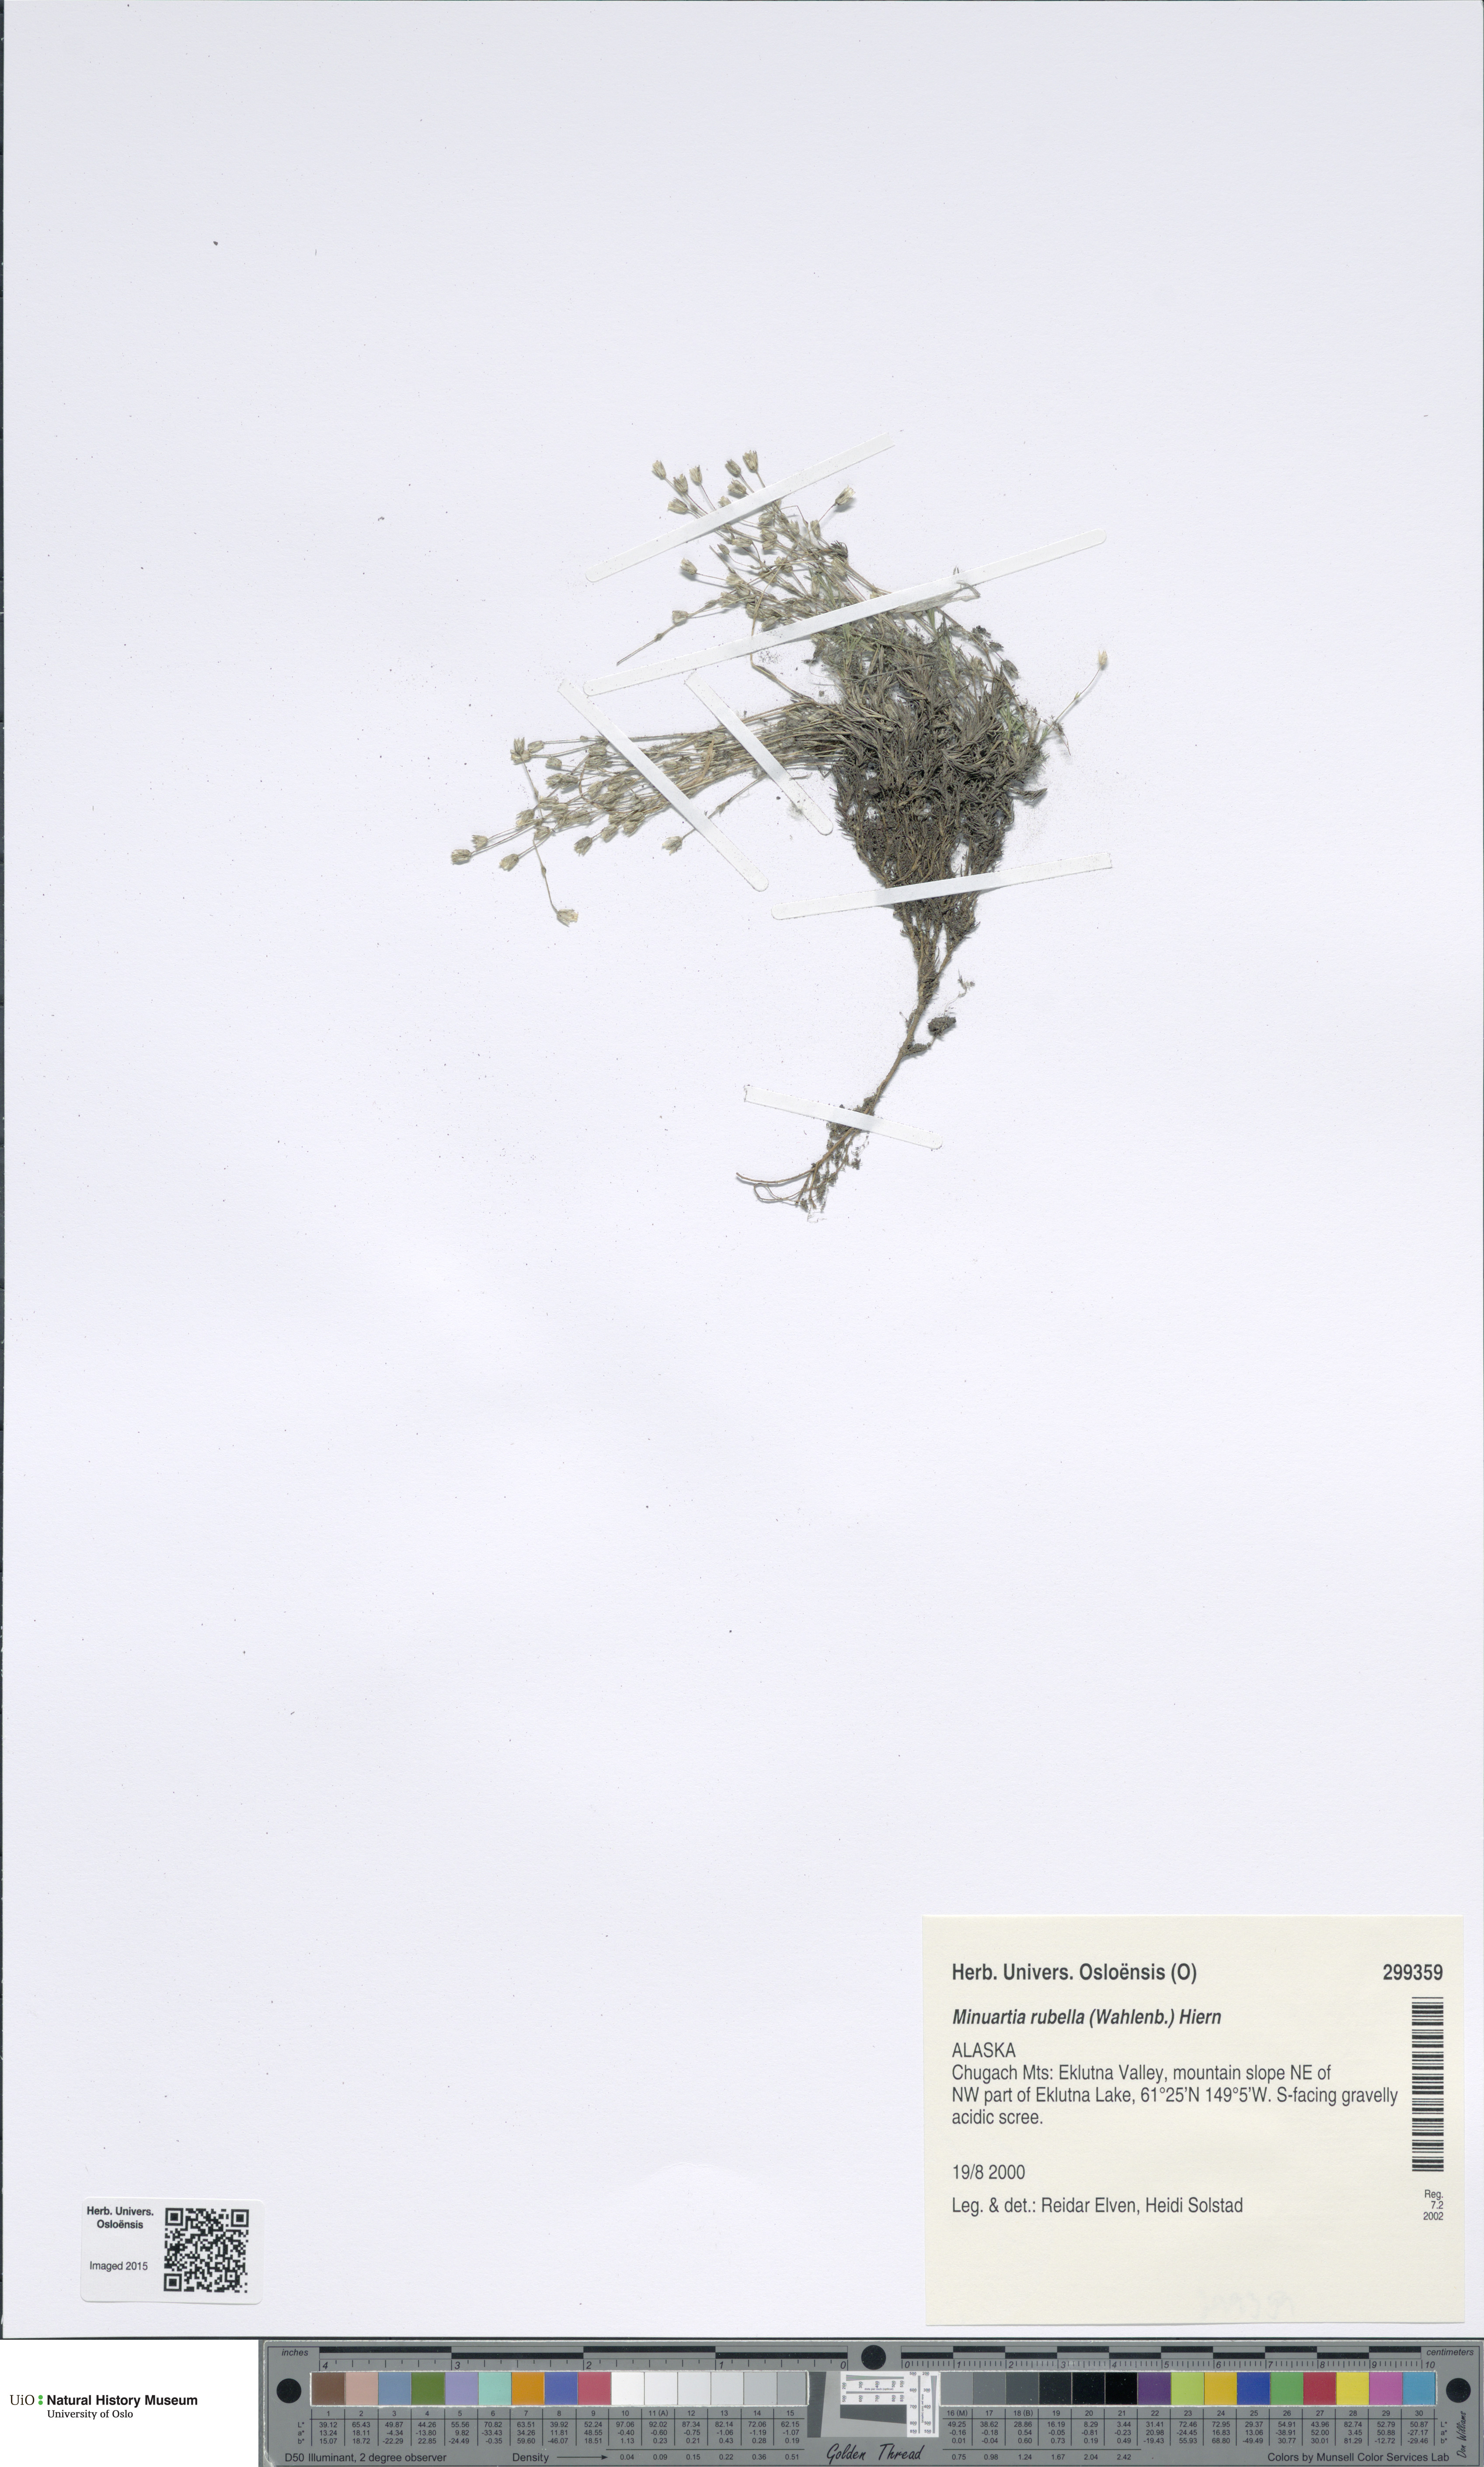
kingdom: Plantae
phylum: Tracheophyta
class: Magnoliopsida
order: Caryophyllales
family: Caryophyllaceae
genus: Sabulina
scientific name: Sabulina rubella
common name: Beautiful sandwort
